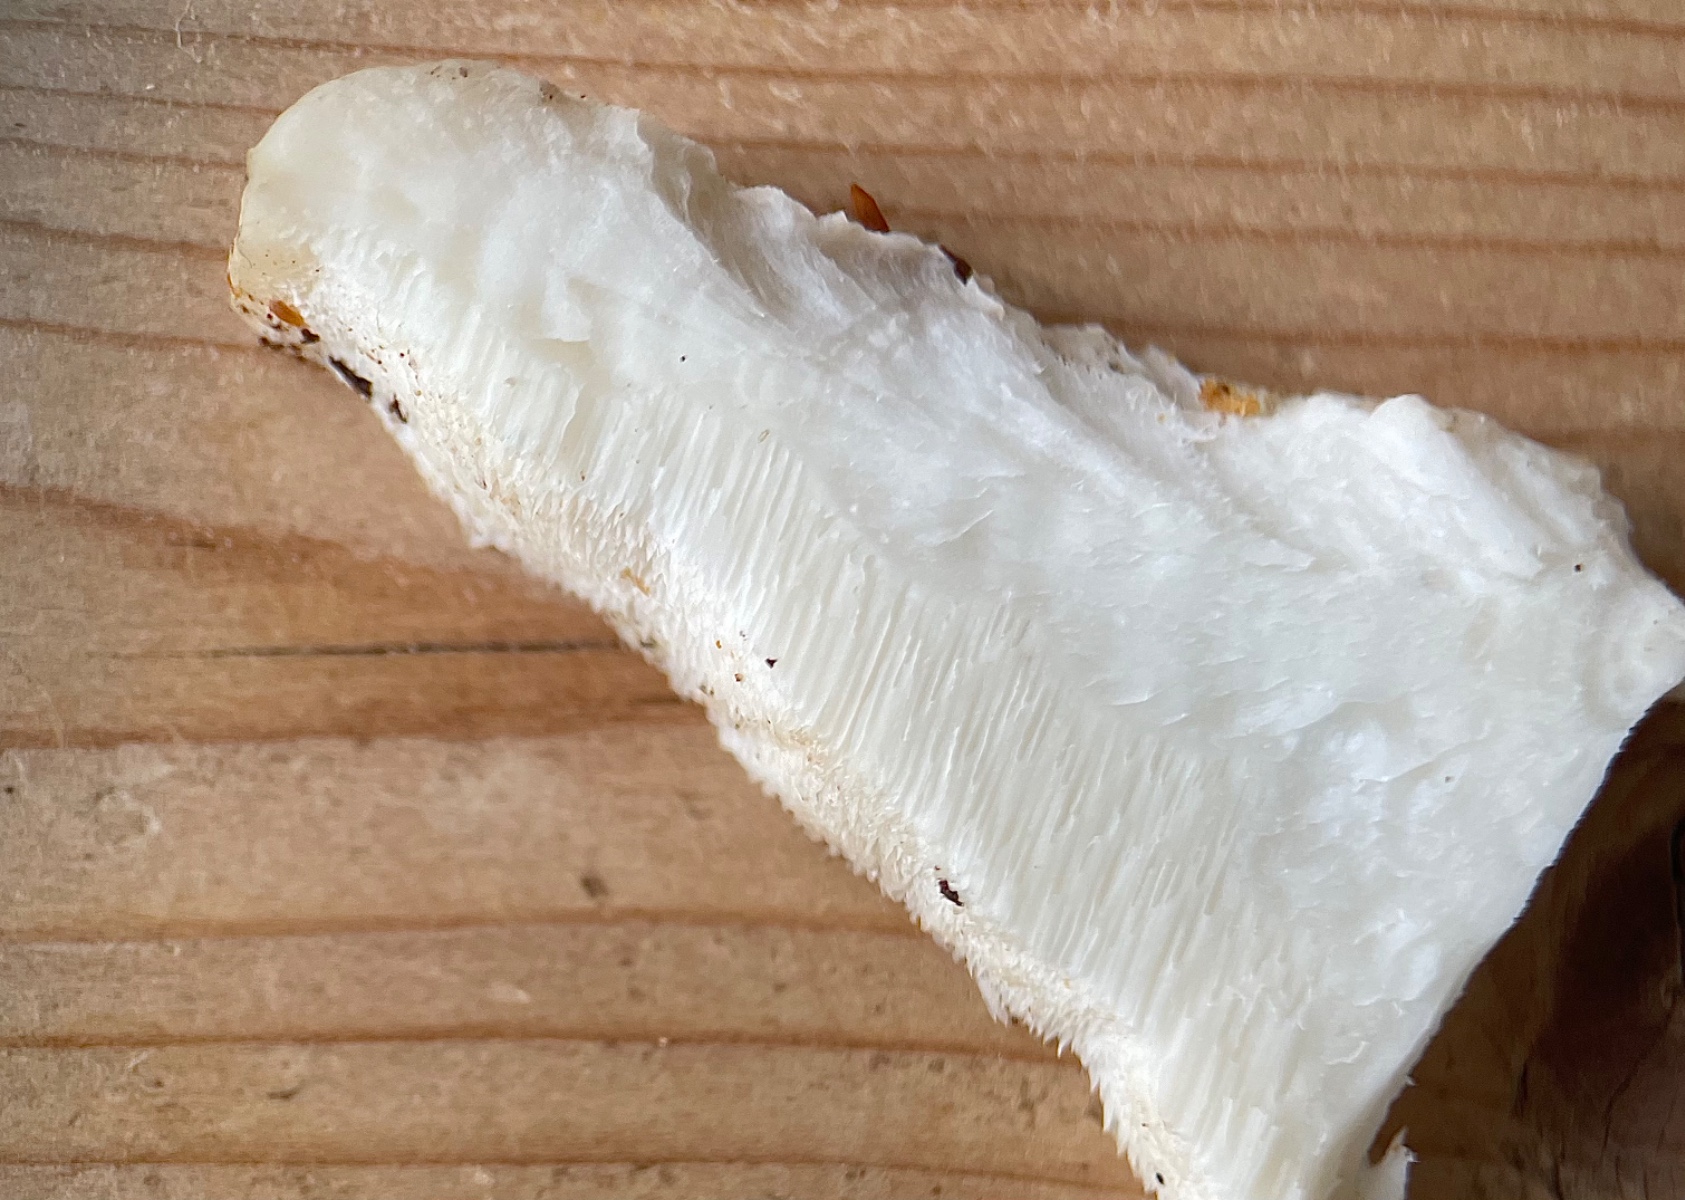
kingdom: Fungi
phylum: Basidiomycota
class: Agaricomycetes
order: Polyporales
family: Incrustoporiaceae
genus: Tyromyces
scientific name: Tyromyces lacteus
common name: mælkehvid kødporesvamp
